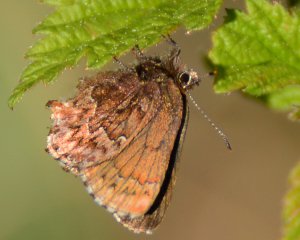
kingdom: Animalia
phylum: Arthropoda
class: Insecta
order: Lepidoptera
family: Lycaenidae
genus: Incisalia
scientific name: Incisalia eryphon
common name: Western Pine Elfin
